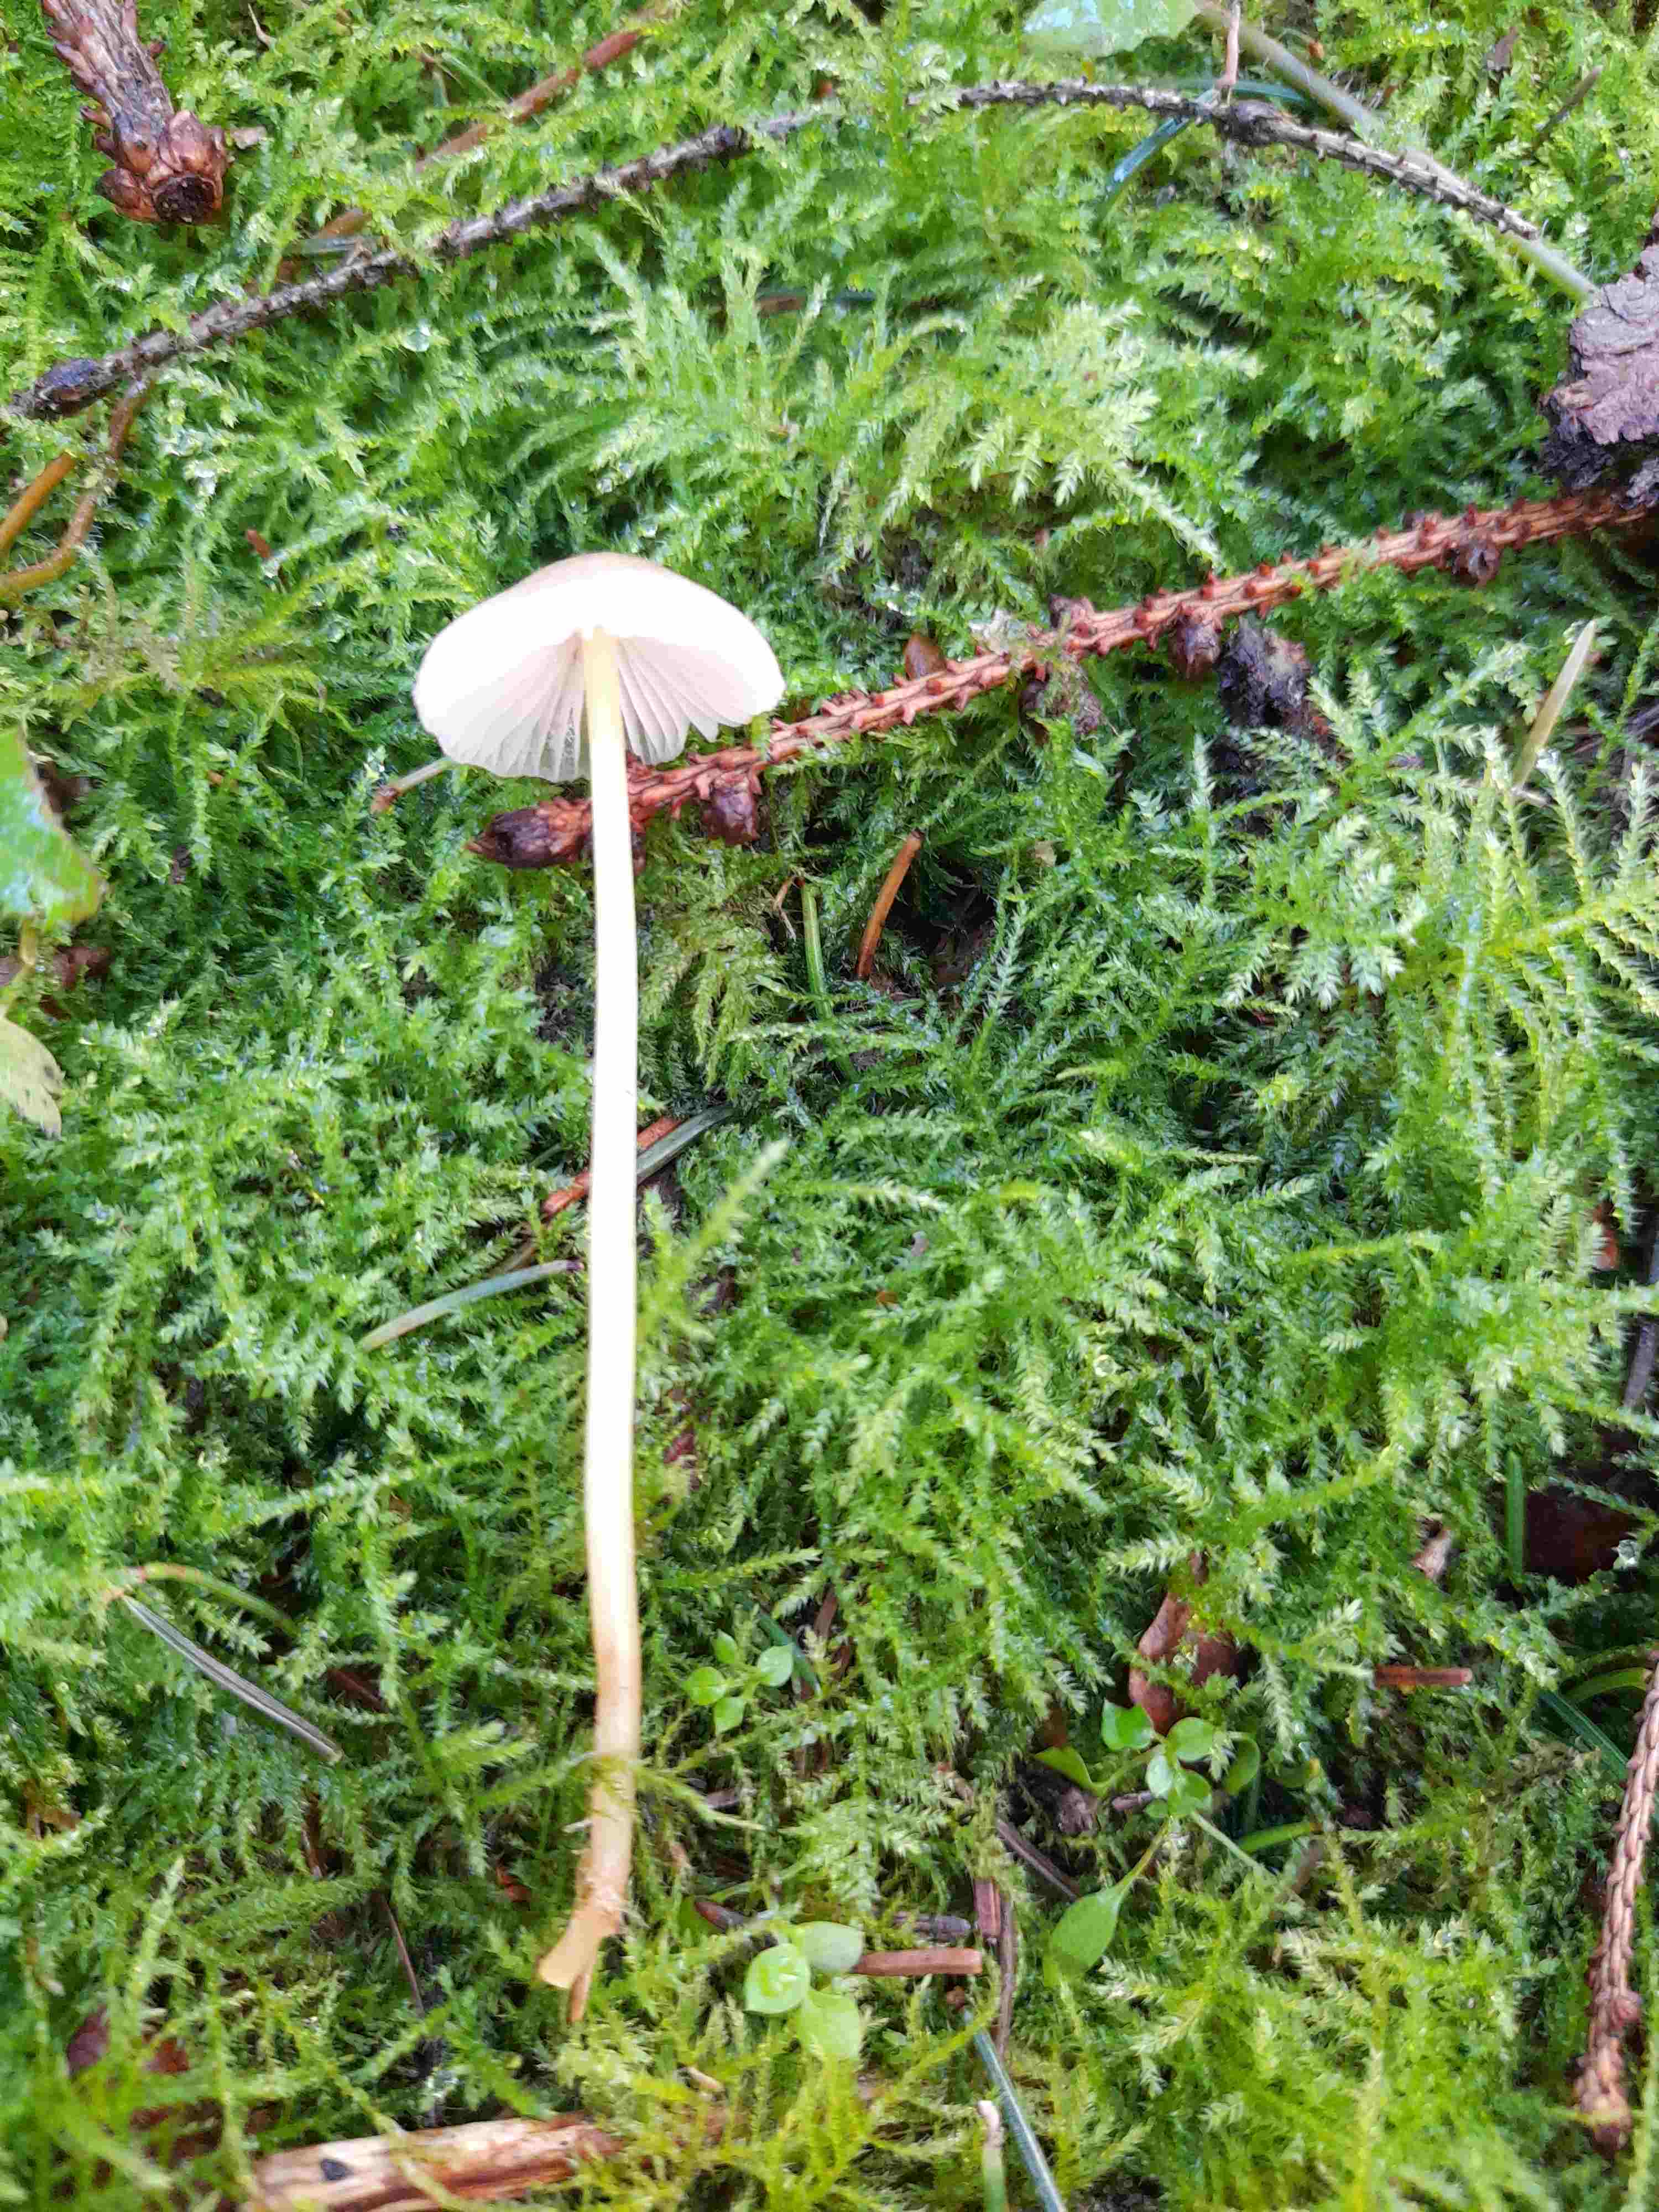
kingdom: Fungi
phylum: Basidiomycota
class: Agaricomycetes
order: Agaricales
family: Mycenaceae
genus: Mycena
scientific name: Mycena epipterygia
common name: gulstokket huesvamp
